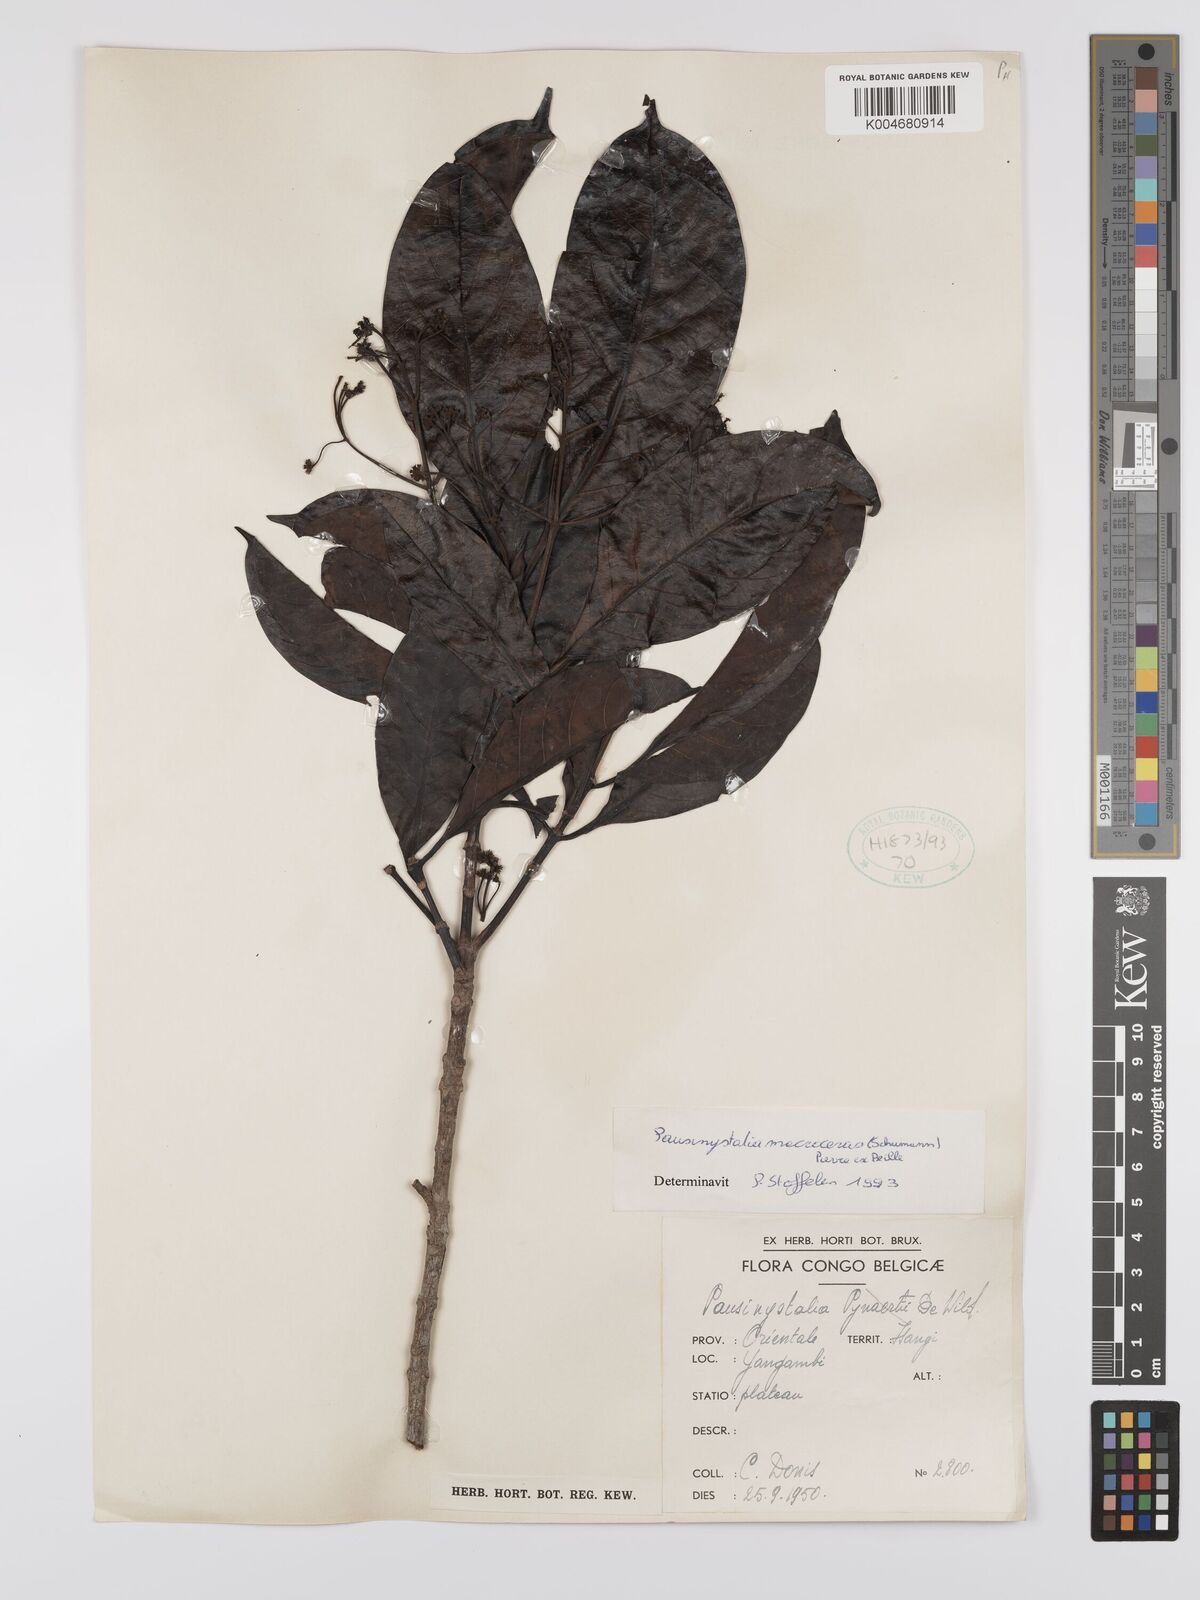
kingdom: Plantae
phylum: Tracheophyta
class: Magnoliopsida
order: Gentianales
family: Rubiaceae
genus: Corynanthe
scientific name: Corynanthe macroceras
